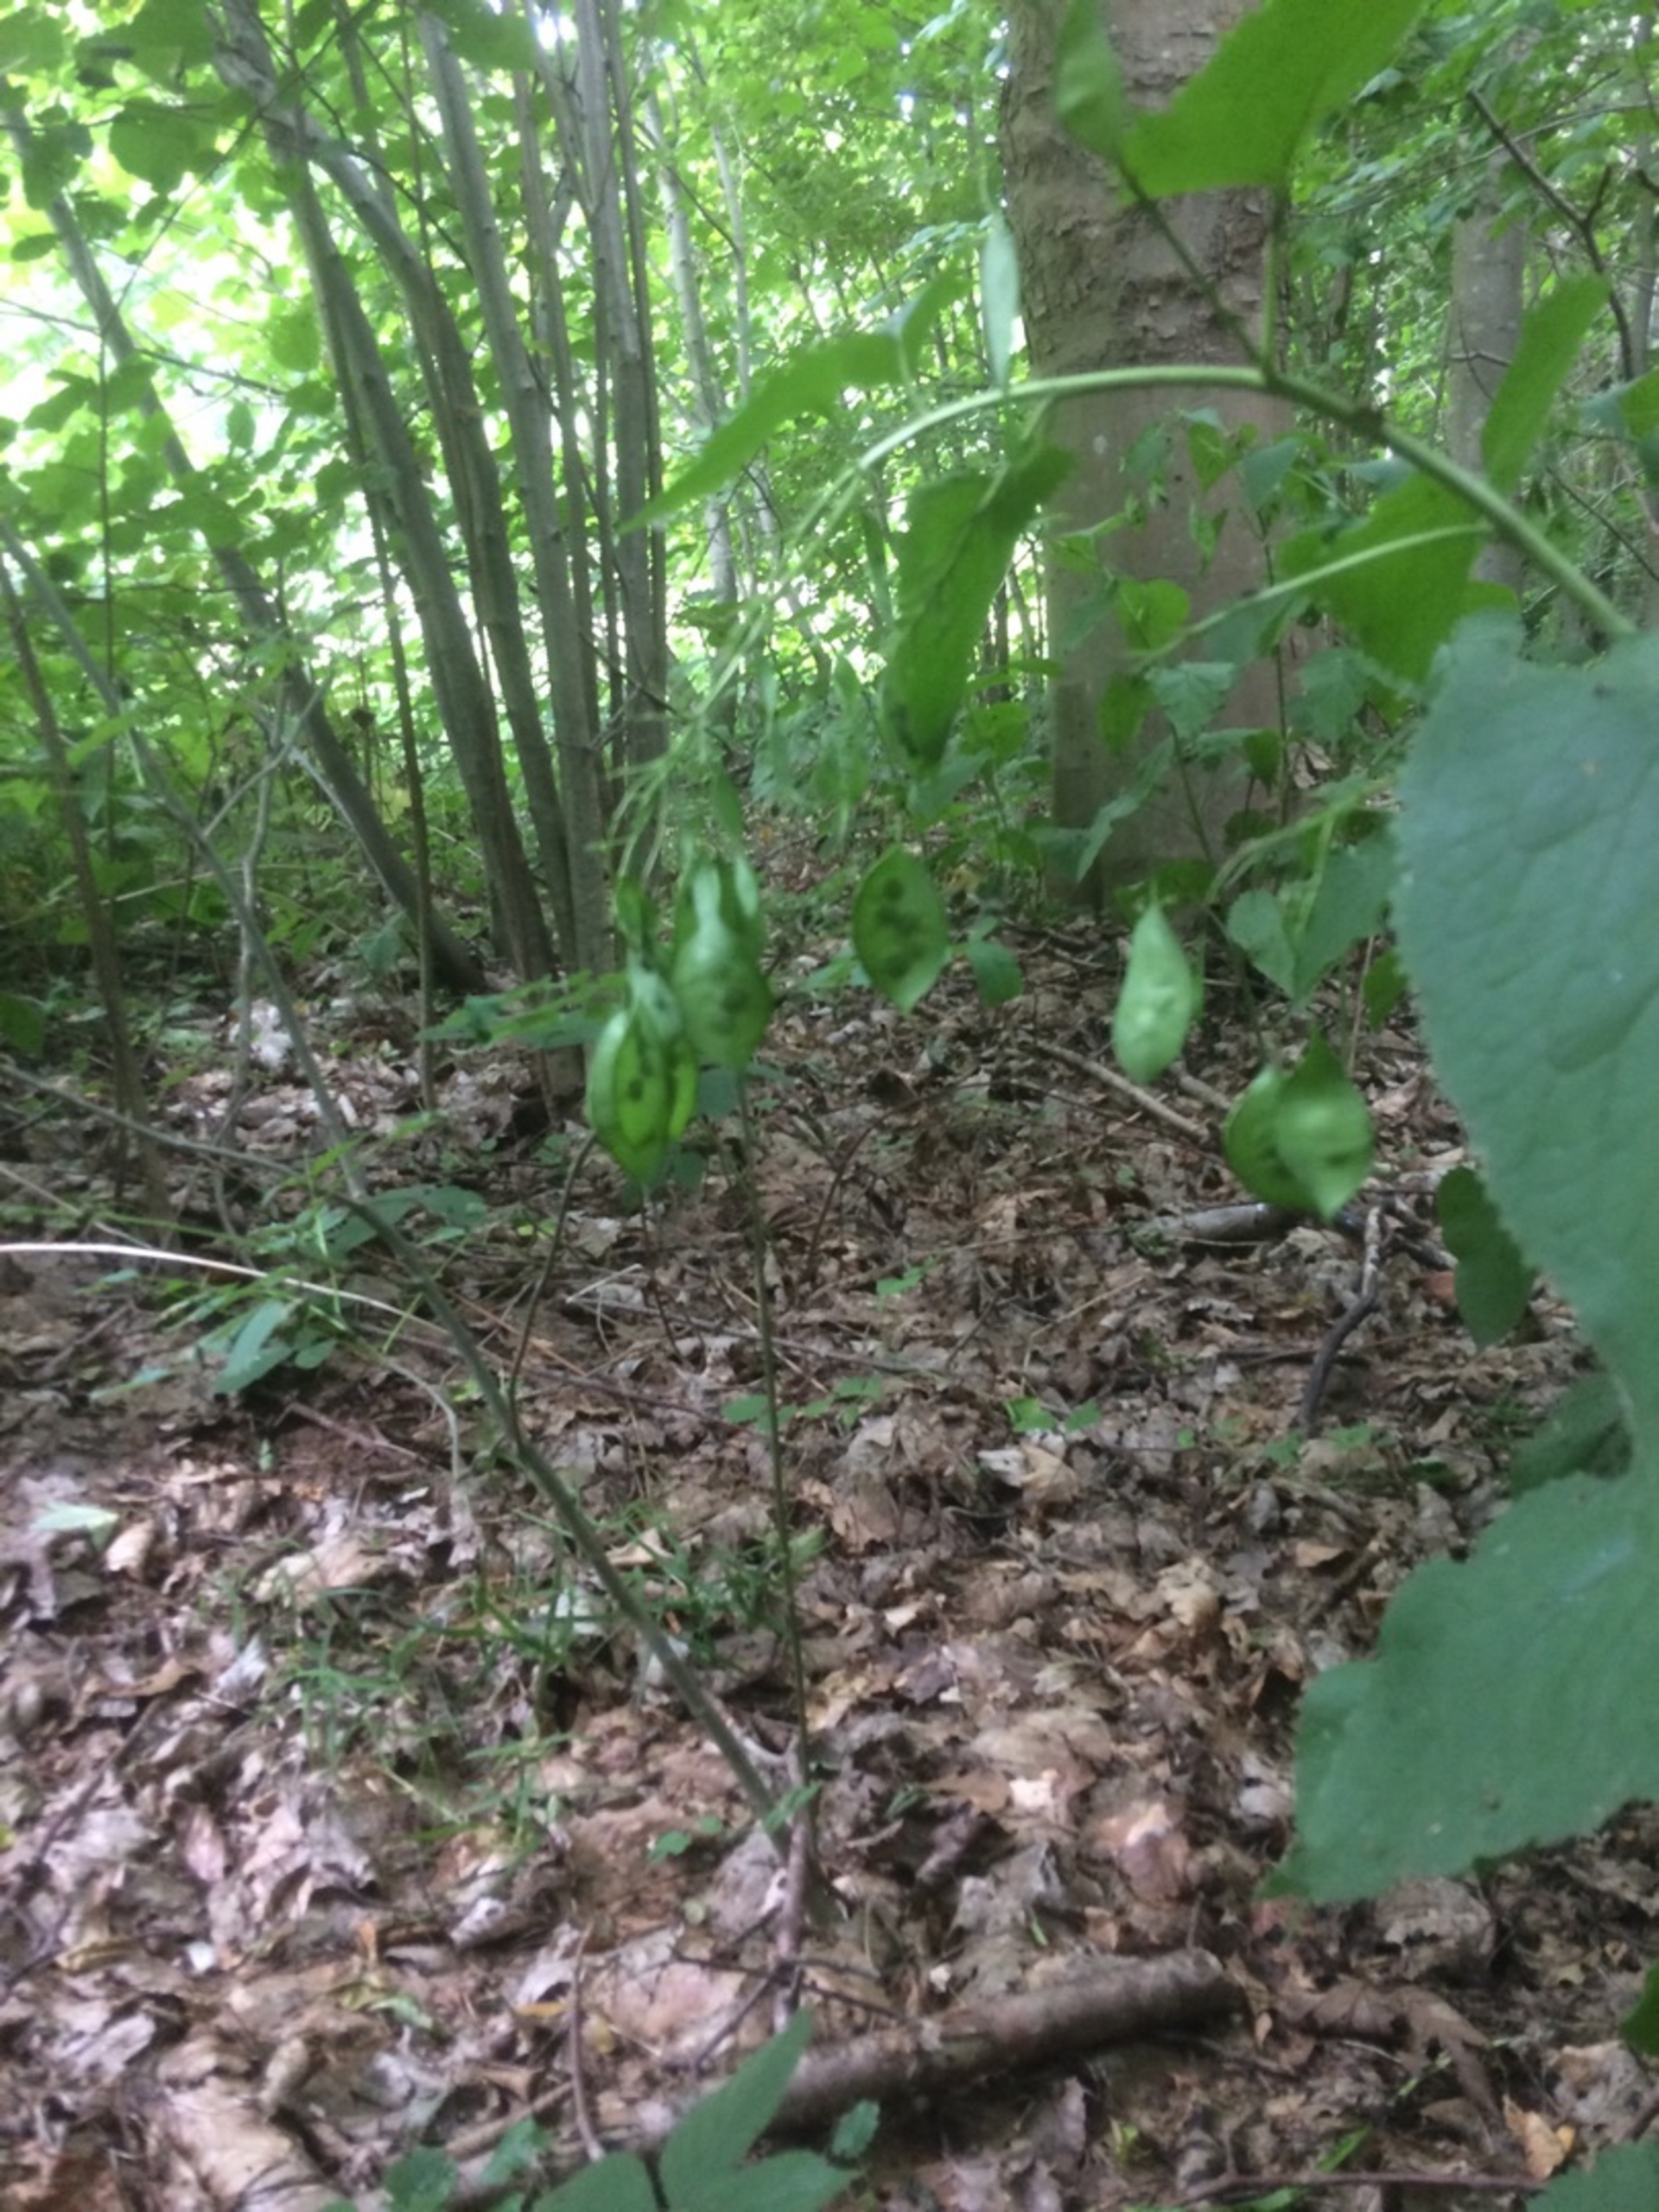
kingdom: Plantae
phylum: Tracheophyta
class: Magnoliopsida
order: Brassicales
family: Brassicaceae
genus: Lunaria
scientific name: Lunaria rediviva
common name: Vedvarende måneskulpe
